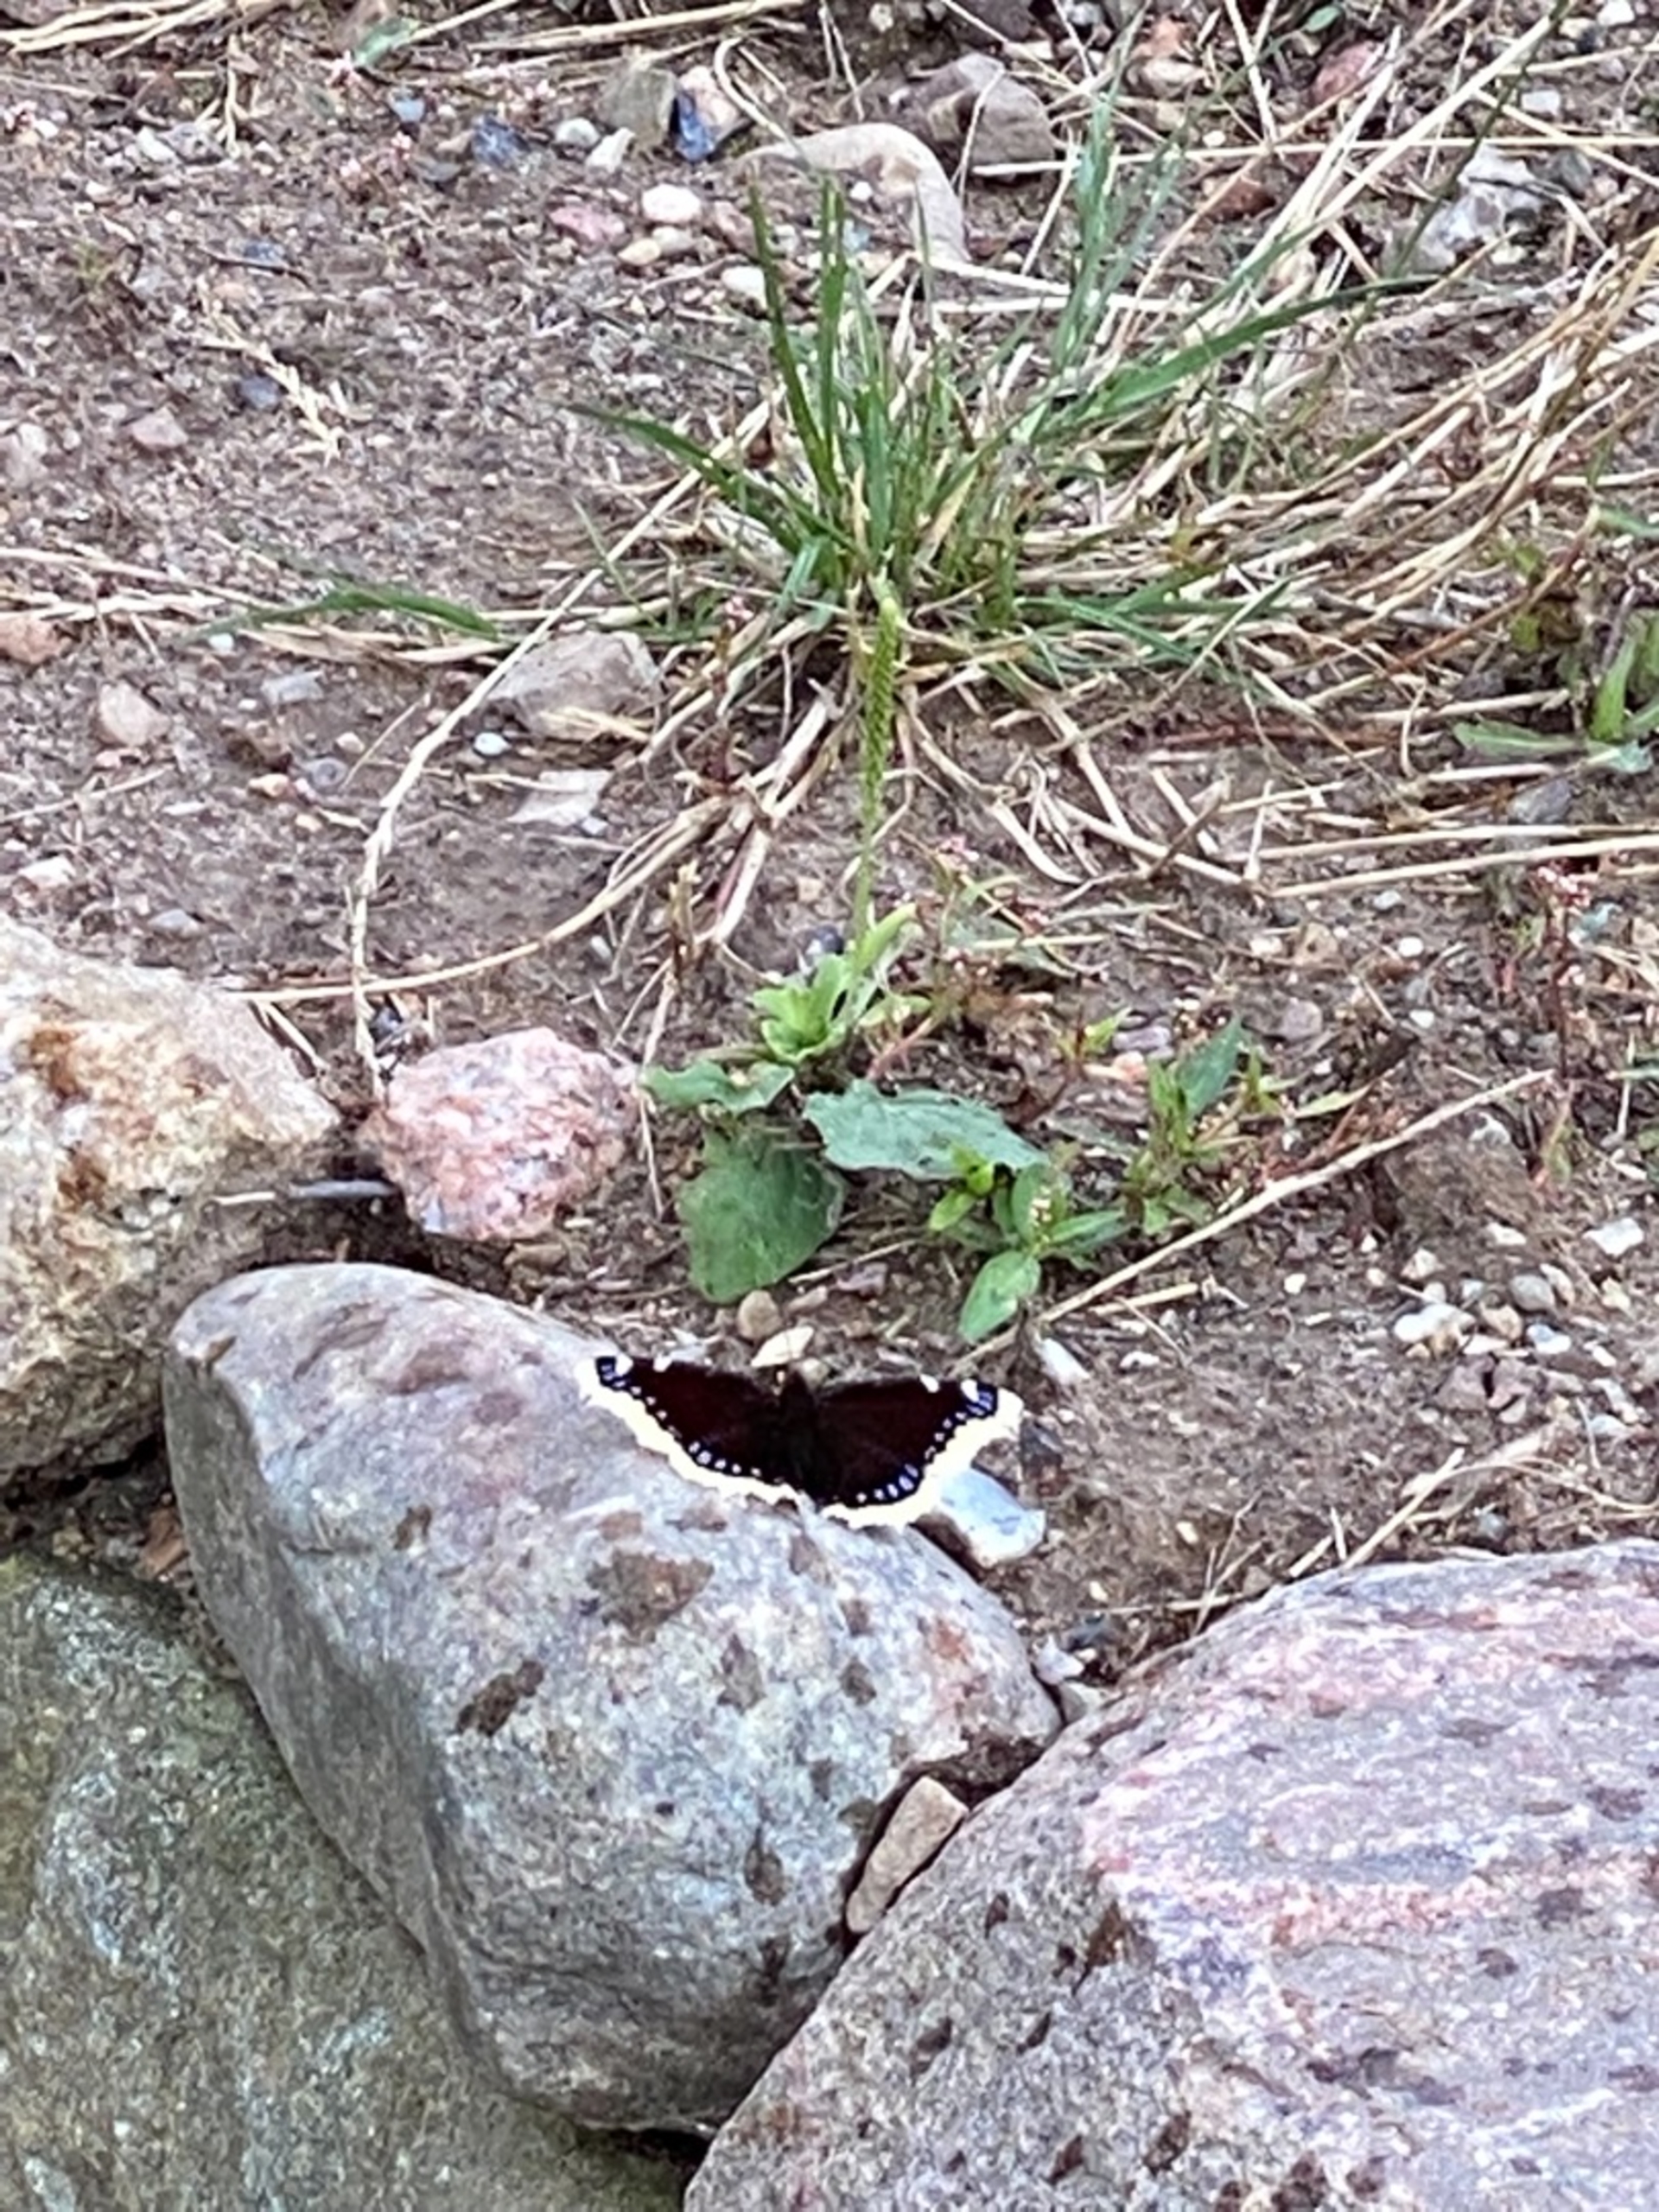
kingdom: Animalia
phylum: Arthropoda
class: Insecta
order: Lepidoptera
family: Nymphalidae
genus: Nymphalis
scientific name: Nymphalis antiopa
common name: Sørgekåbe
